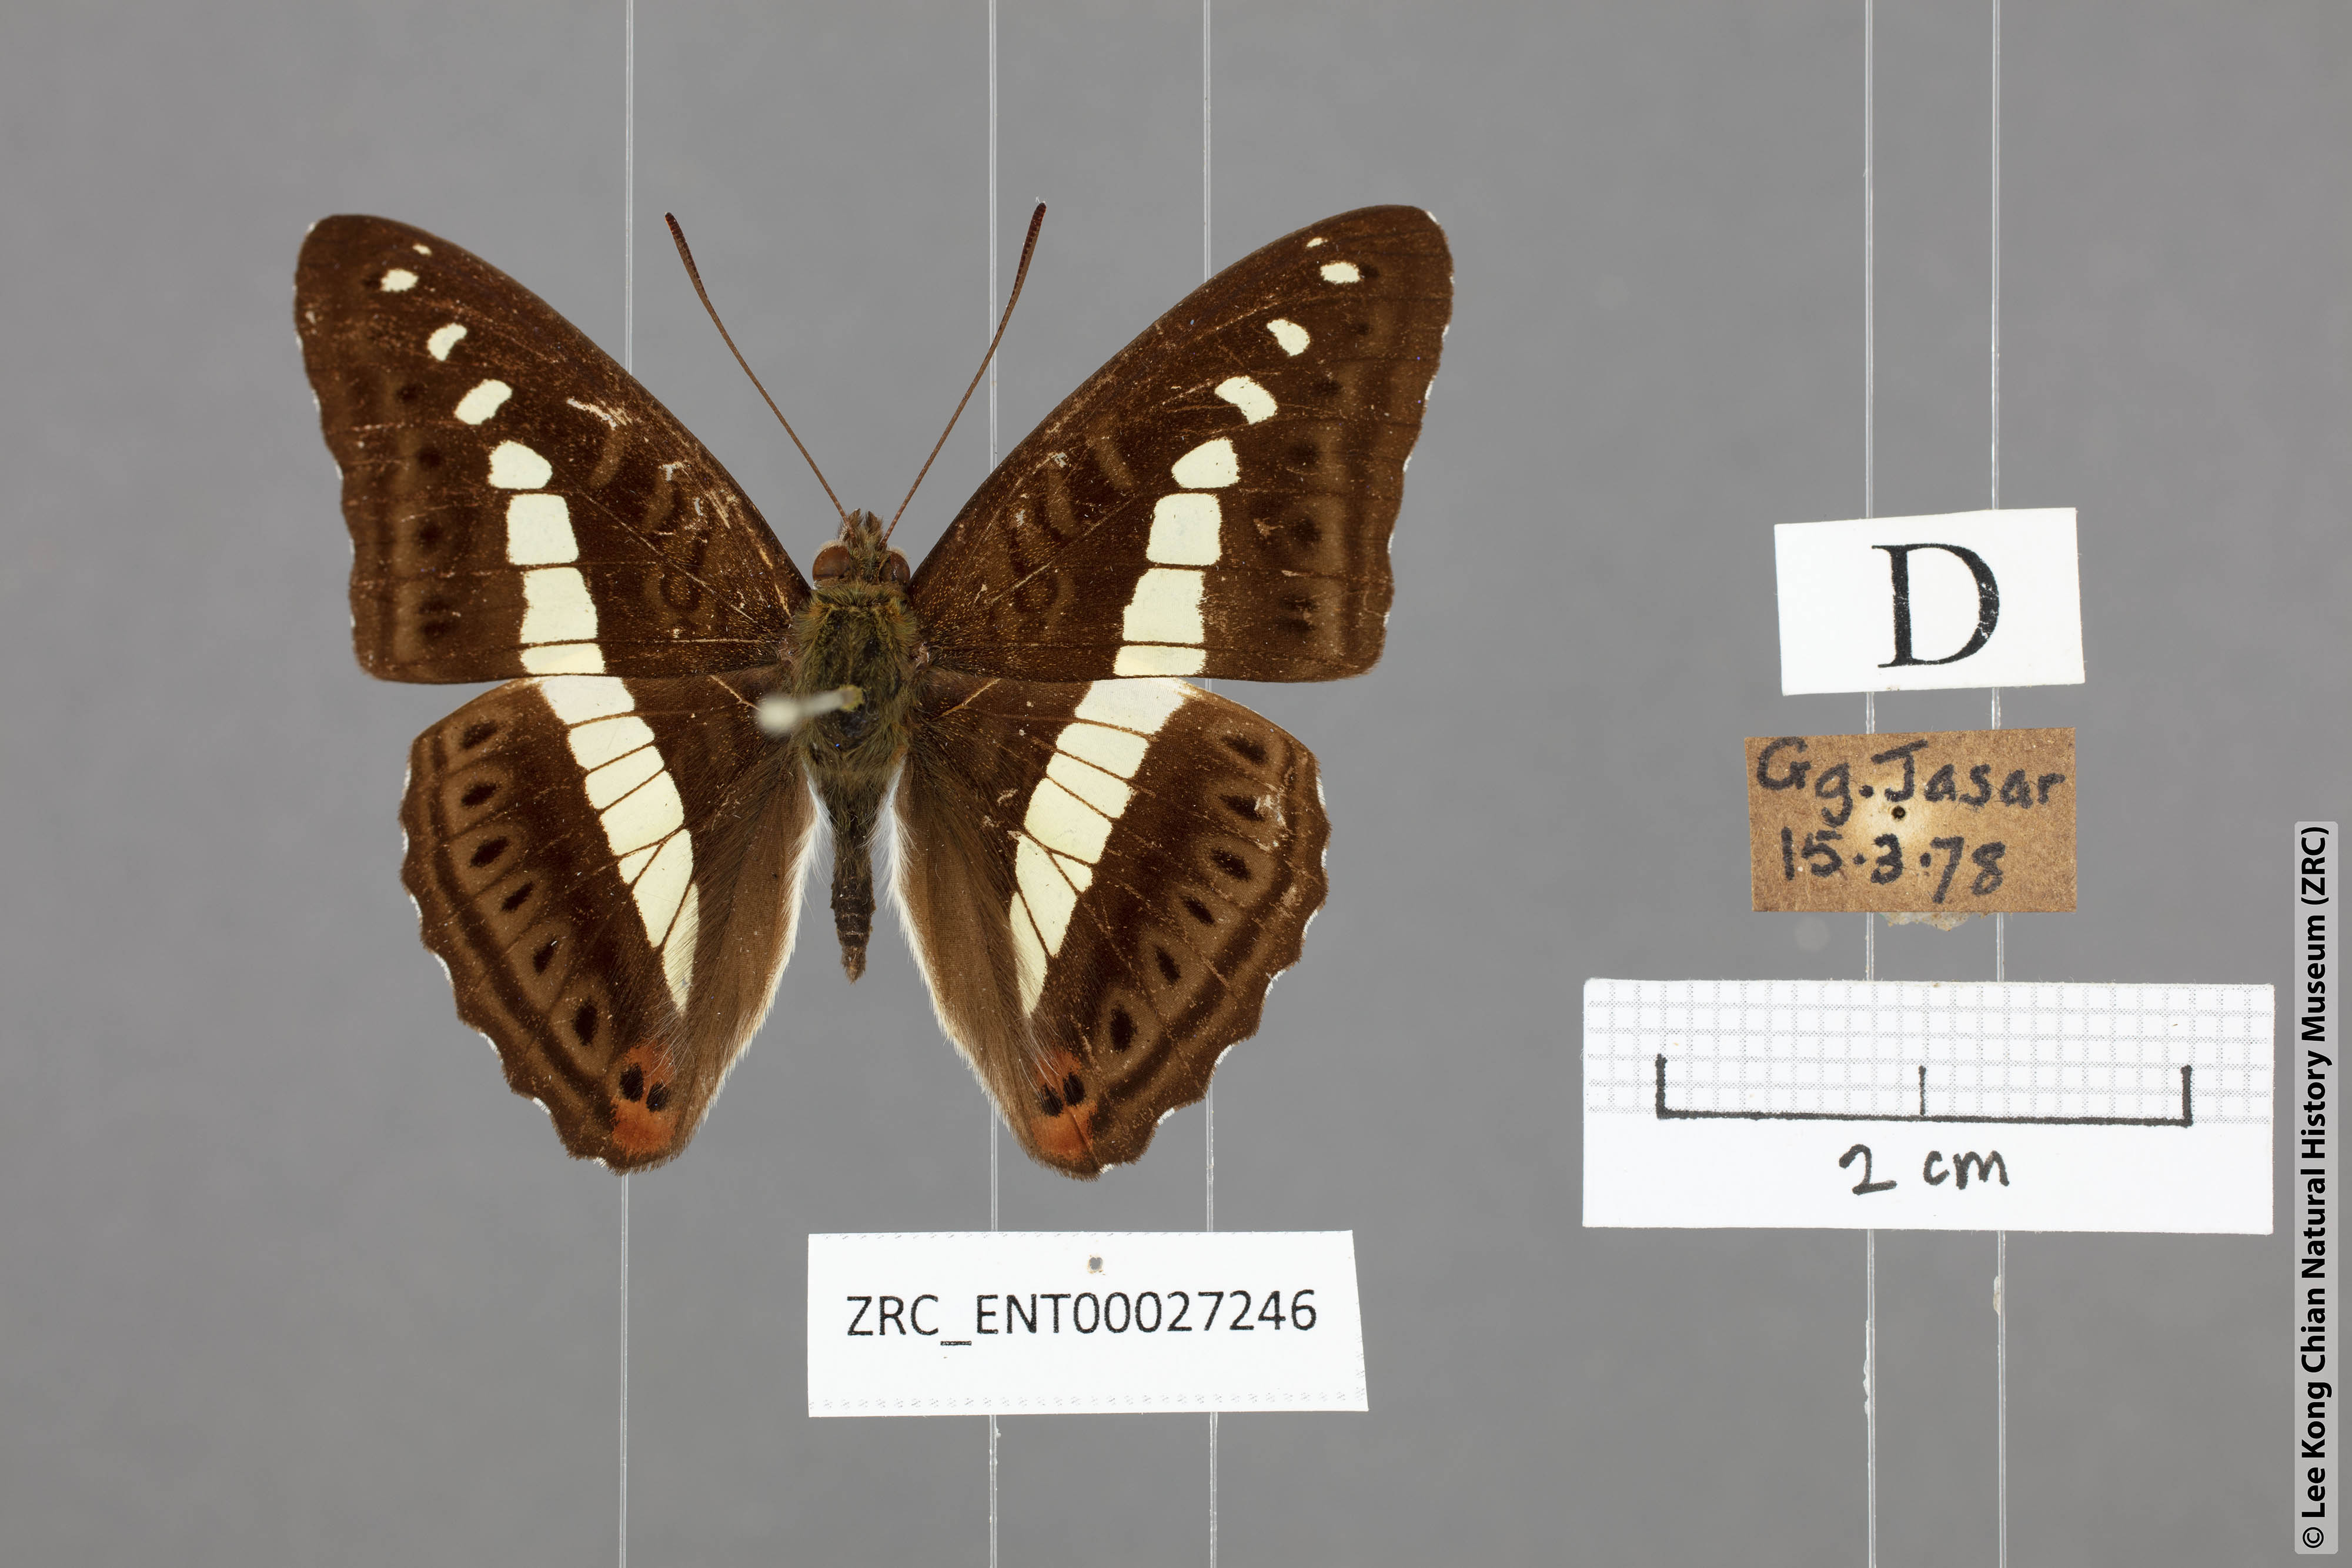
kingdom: Animalia
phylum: Arthropoda
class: Insecta
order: Lepidoptera
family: Nymphalidae
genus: Limenitis
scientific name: Limenitis Sumalia daraxa
